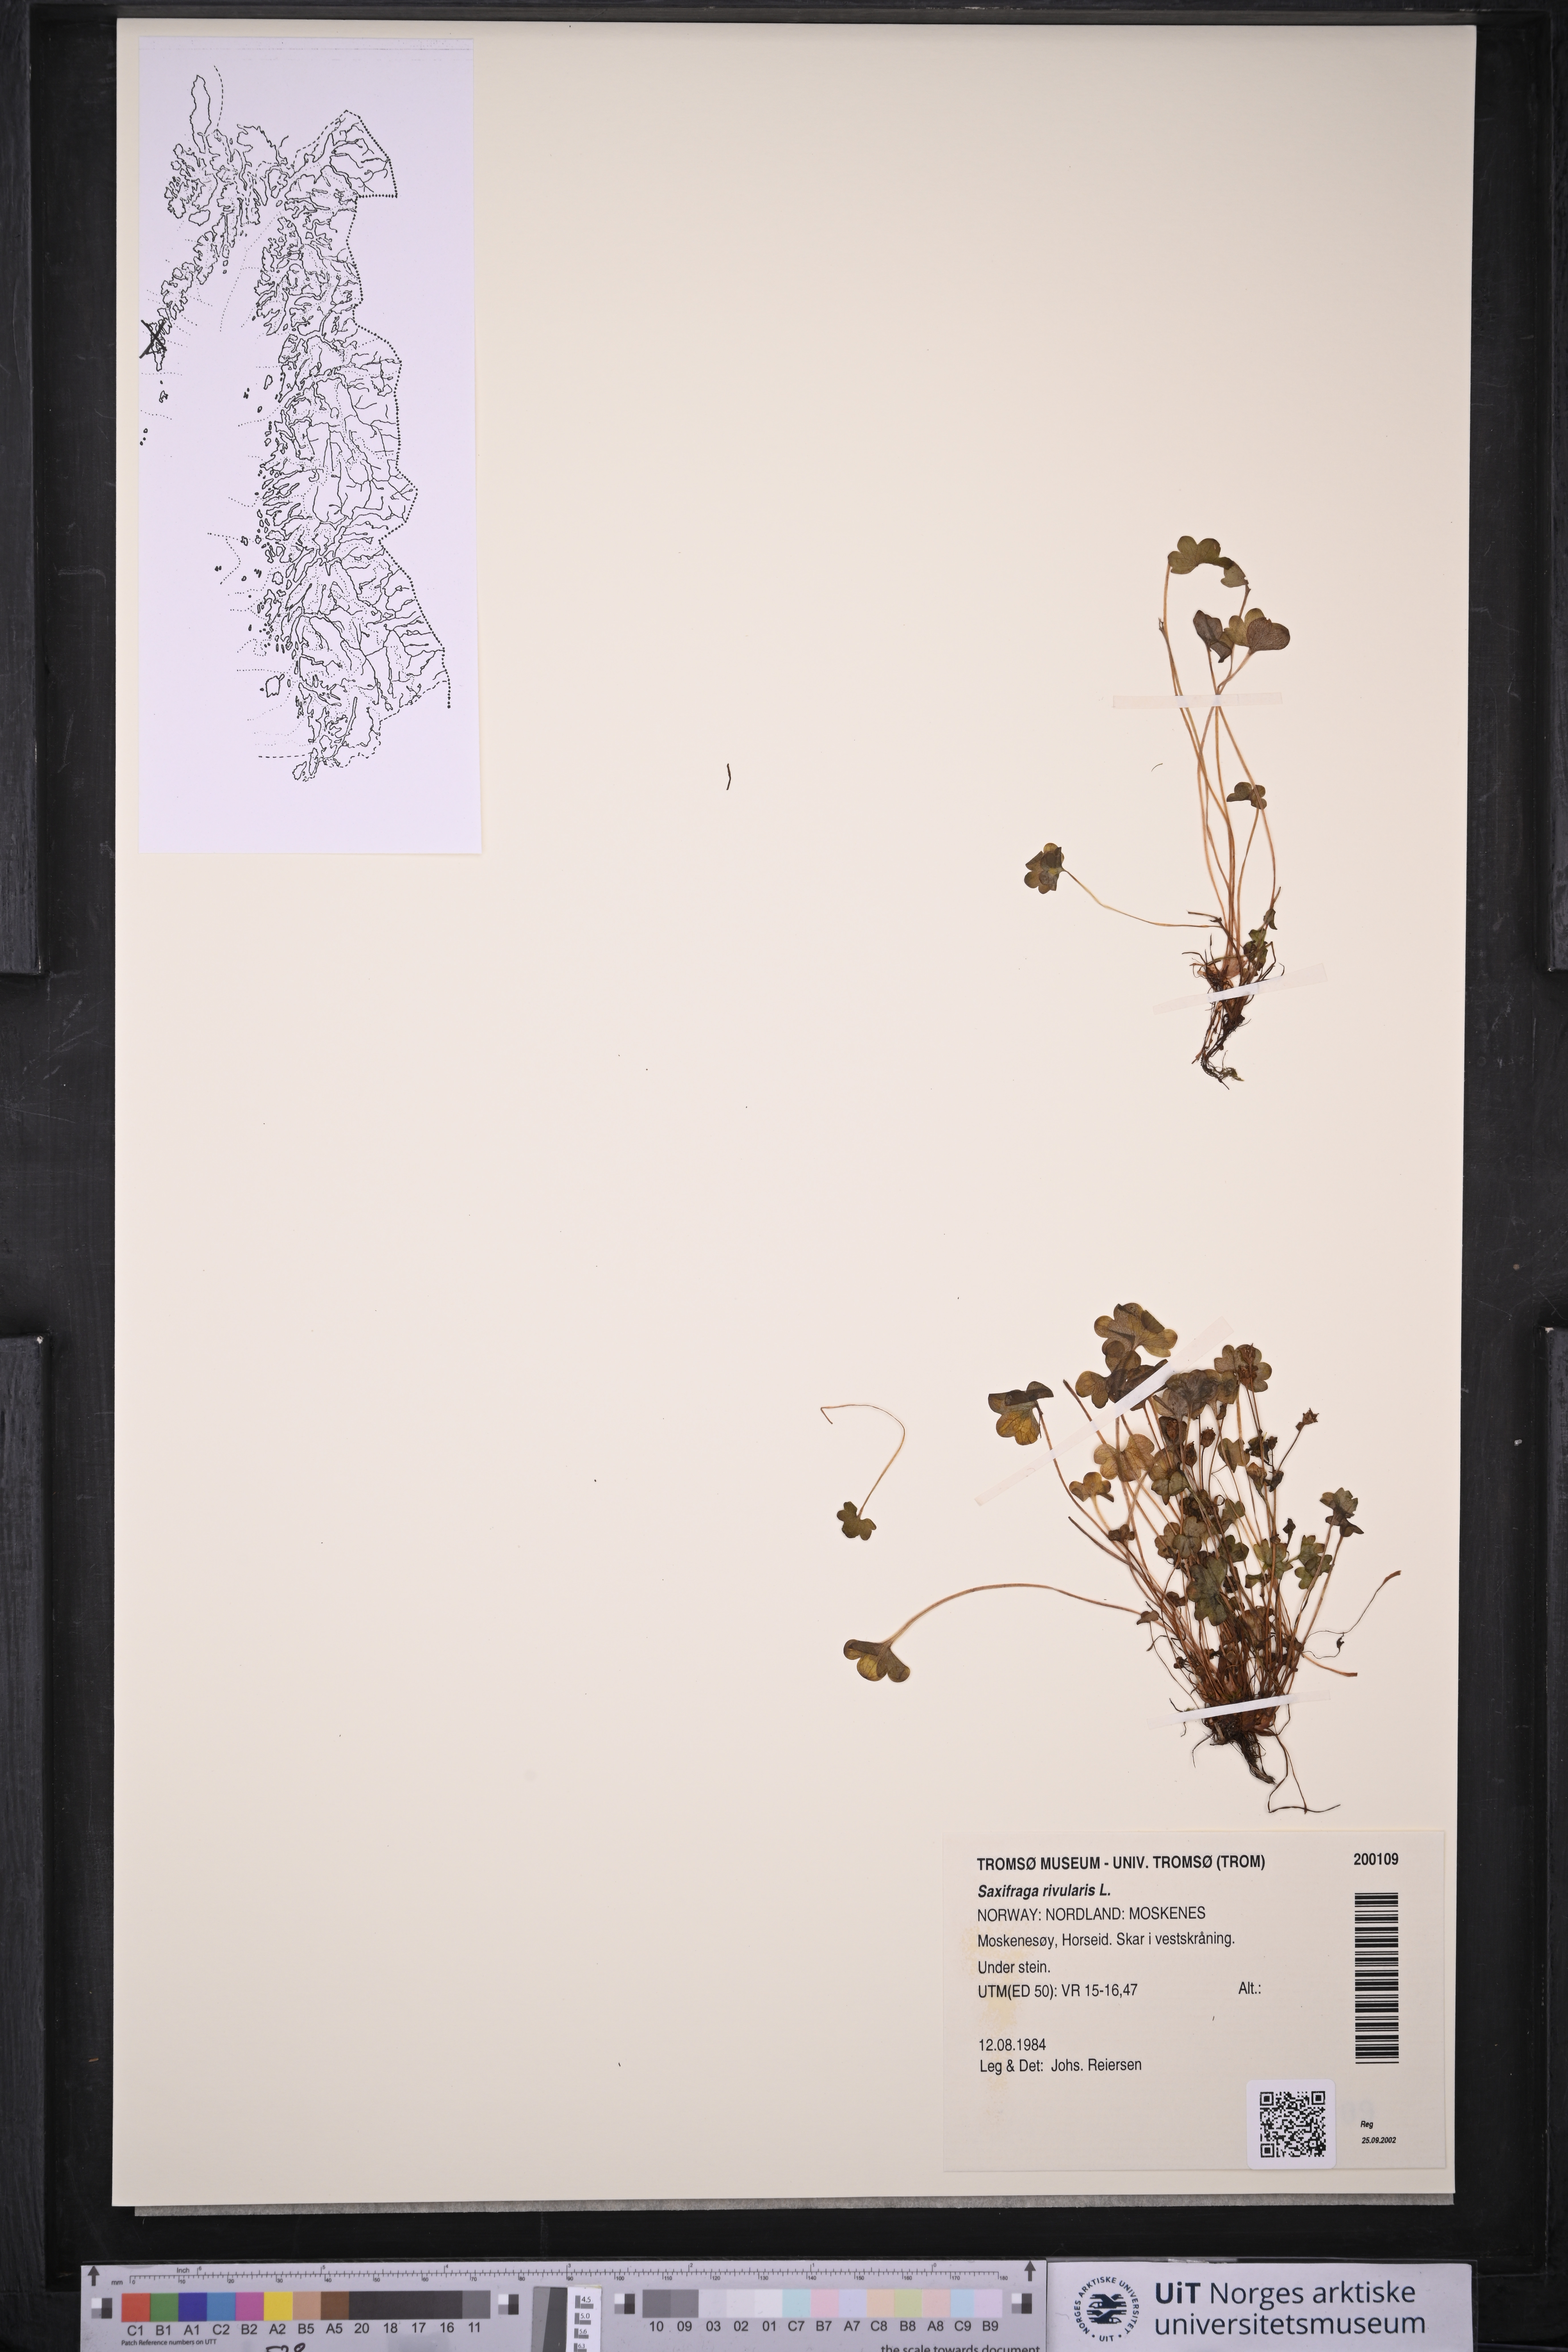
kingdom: Plantae
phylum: Tracheophyta
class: Magnoliopsida
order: Saxifragales
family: Saxifragaceae
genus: Saxifraga
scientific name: Saxifraga rivularis
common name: Highland saxifrage
